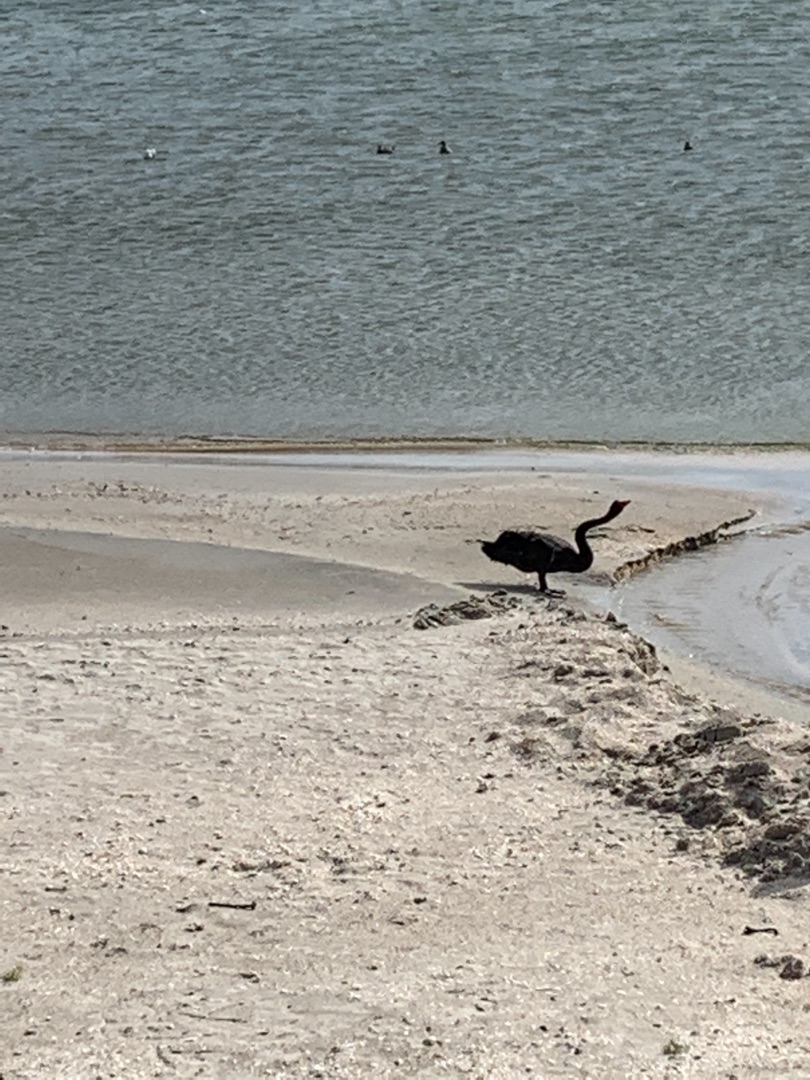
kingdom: Animalia
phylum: Chordata
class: Aves
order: Anseriformes
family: Anatidae
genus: Cygnus
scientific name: Cygnus atratus
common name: Sortsvane
